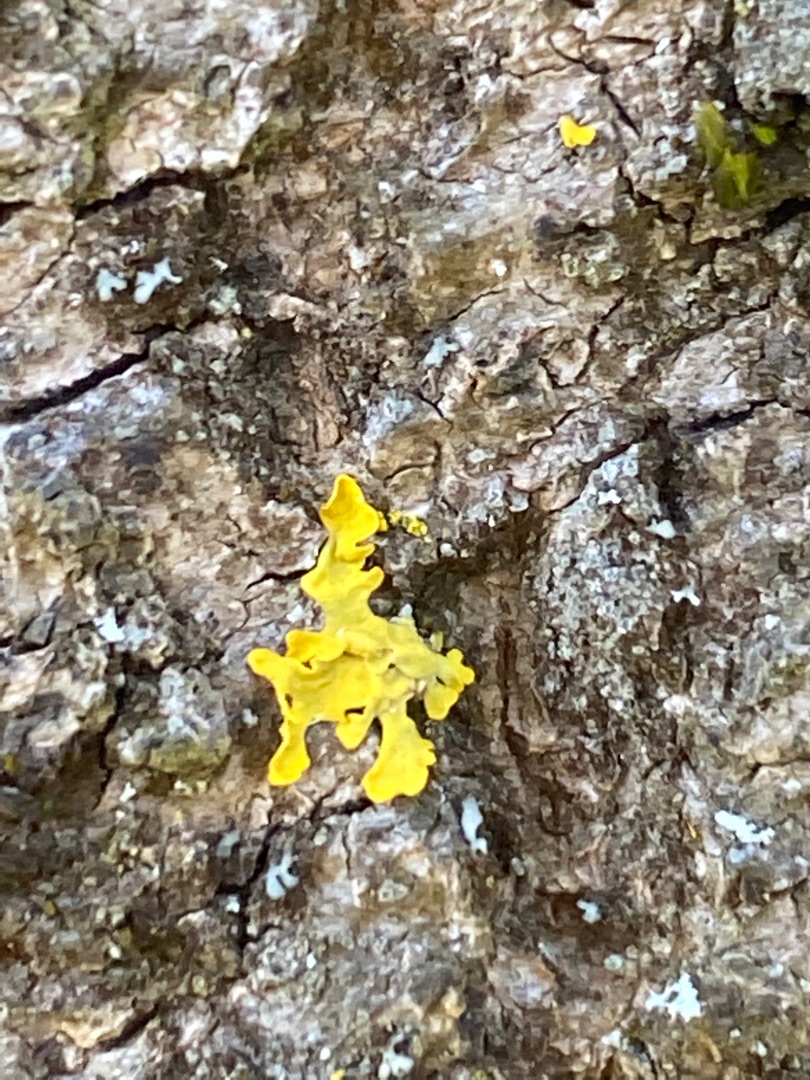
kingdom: Fungi
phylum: Ascomycota
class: Lecanoromycetes
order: Teloschistales
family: Teloschistaceae
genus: Xanthoria
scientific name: Xanthoria parietina
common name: Almindelig væggelav
